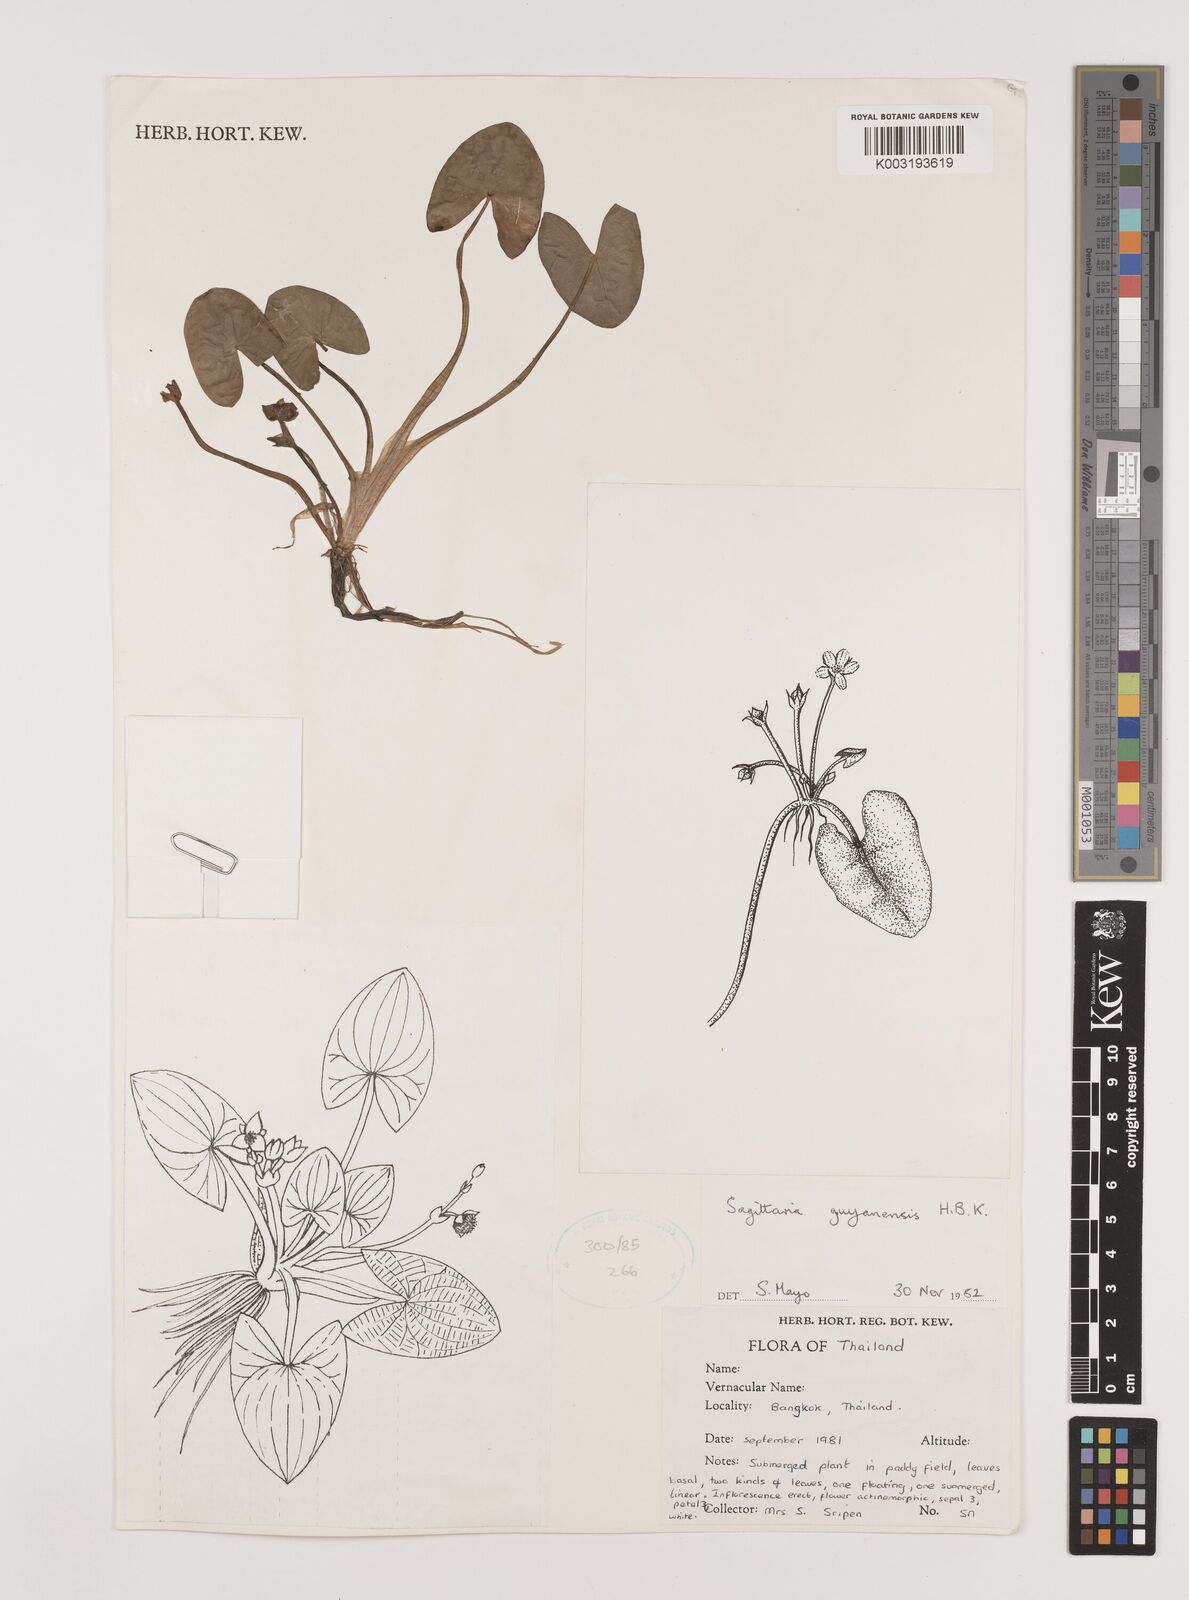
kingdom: Plantae
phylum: Tracheophyta
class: Liliopsida
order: Alismatales
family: Alismataceae
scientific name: Alismataceae
